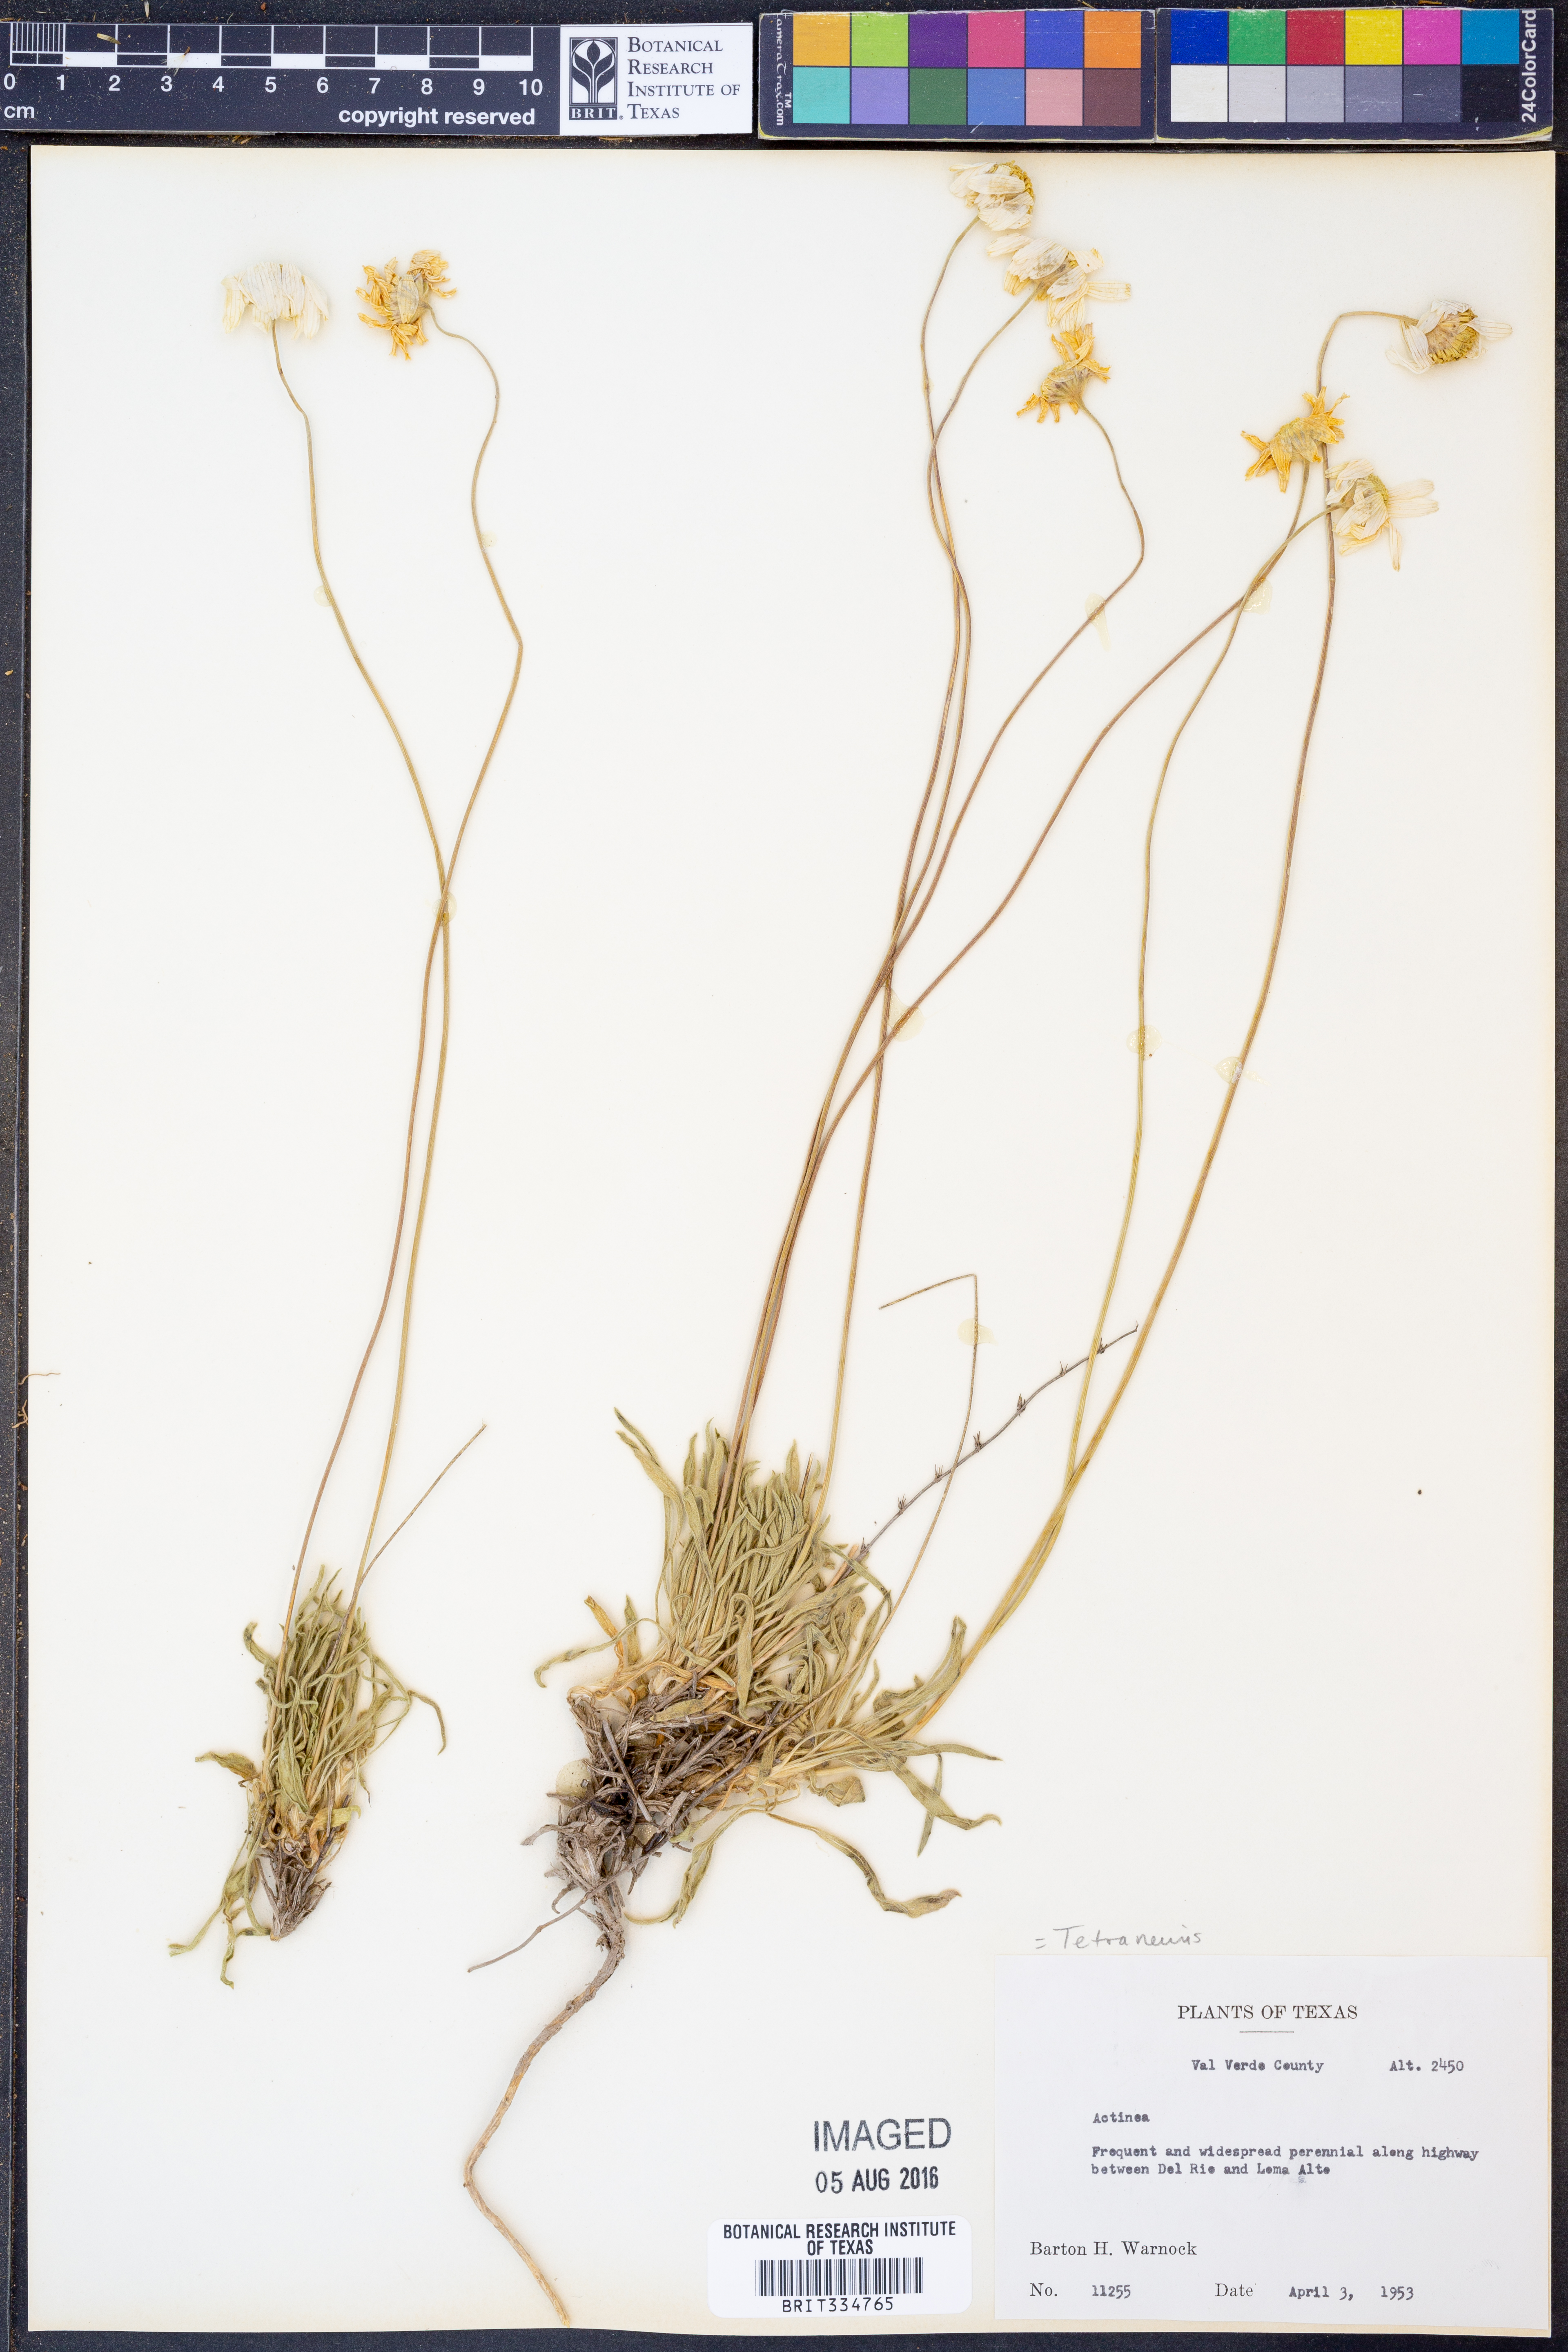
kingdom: Plantae
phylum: Tracheophyta
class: Magnoliopsida
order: Asterales
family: Asteraceae
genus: Tetraneuris
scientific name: Tetraneuris
